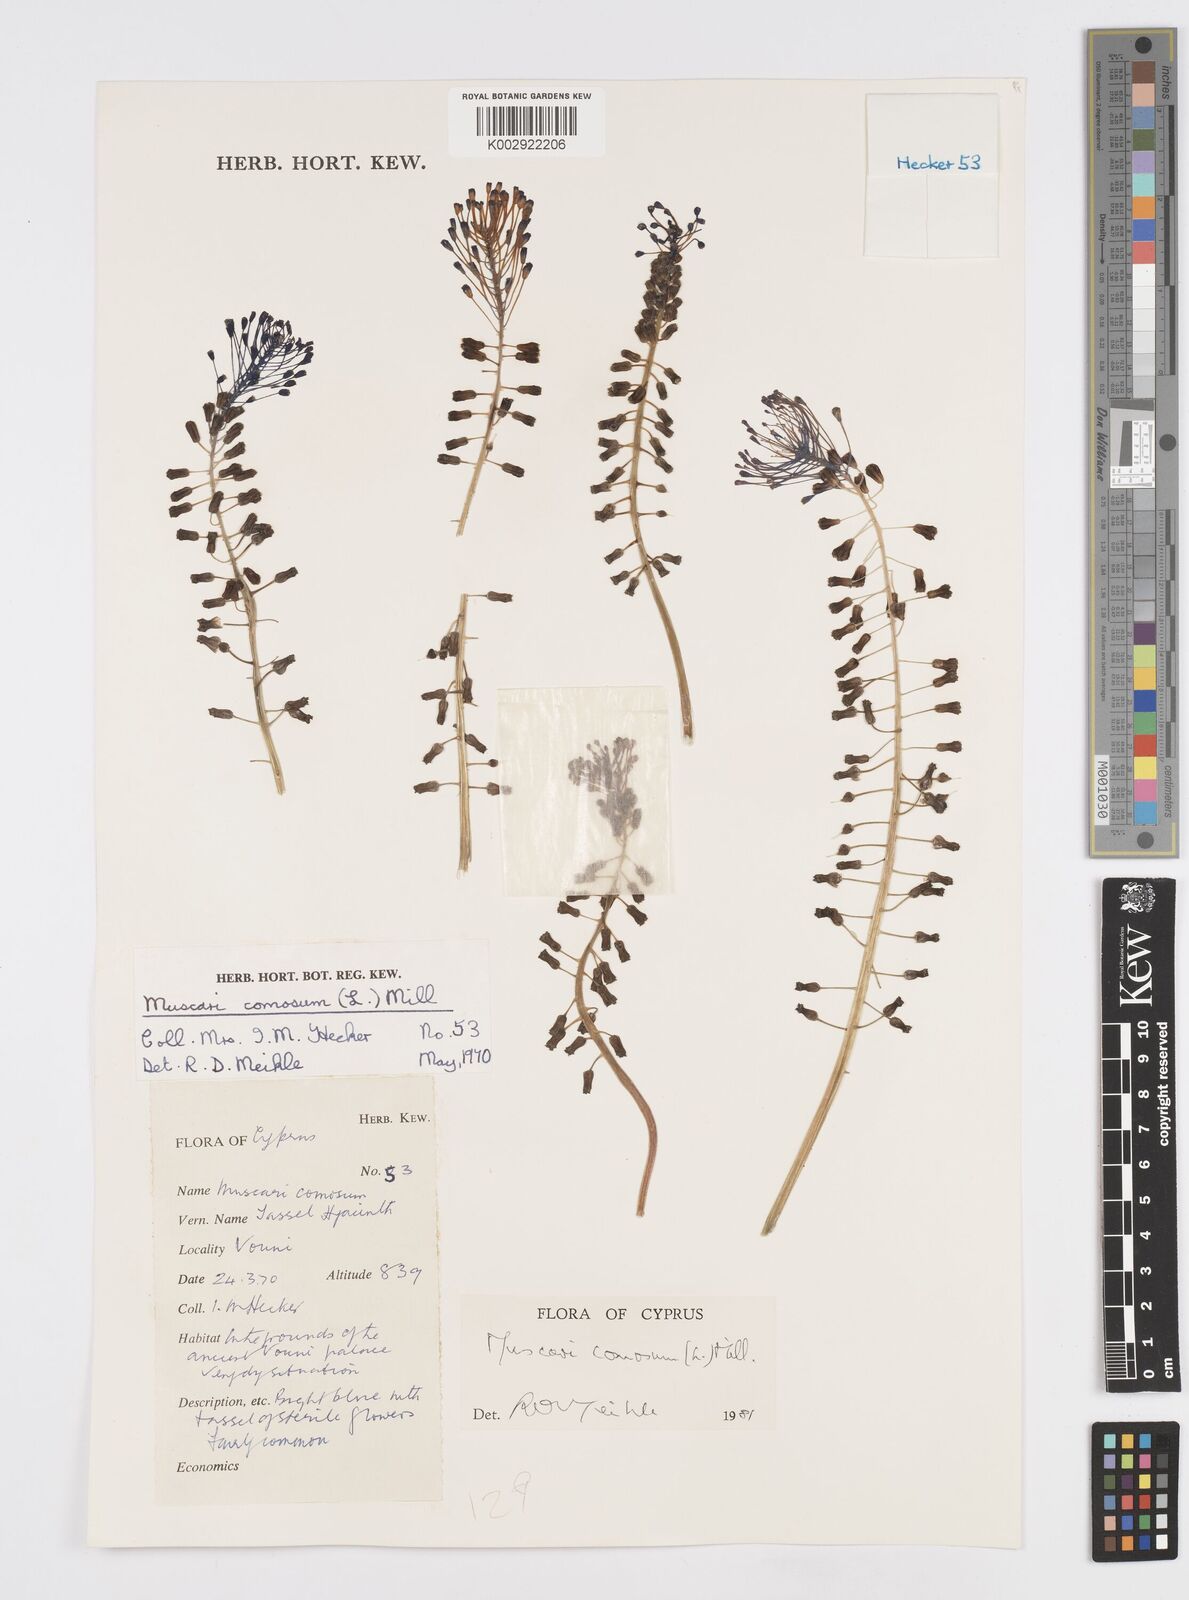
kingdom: Plantae
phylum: Tracheophyta
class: Liliopsida
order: Asparagales
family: Asparagaceae
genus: Muscari
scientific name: Muscari comosum
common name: Tassel hyacinth
